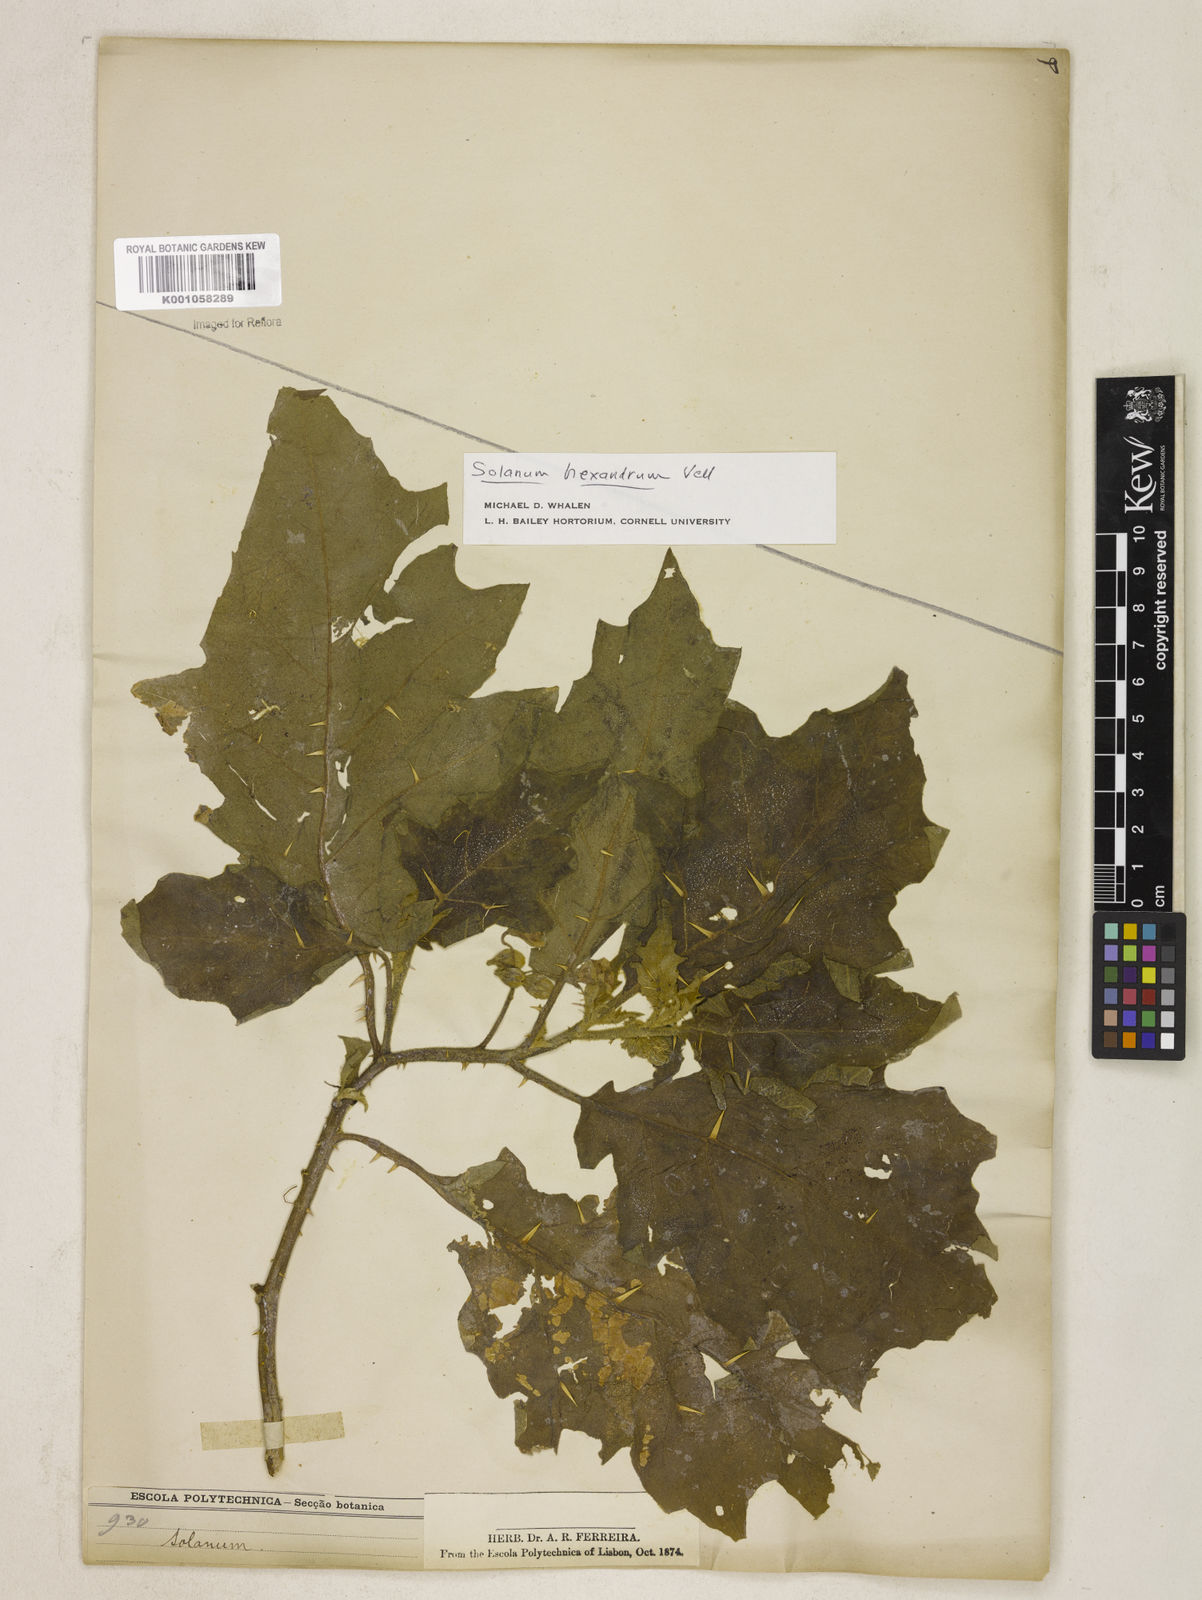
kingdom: Plantae
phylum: Tracheophyta
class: Magnoliopsida
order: Solanales
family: Solanaceae
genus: Solanum
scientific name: Solanum cerasiferum
